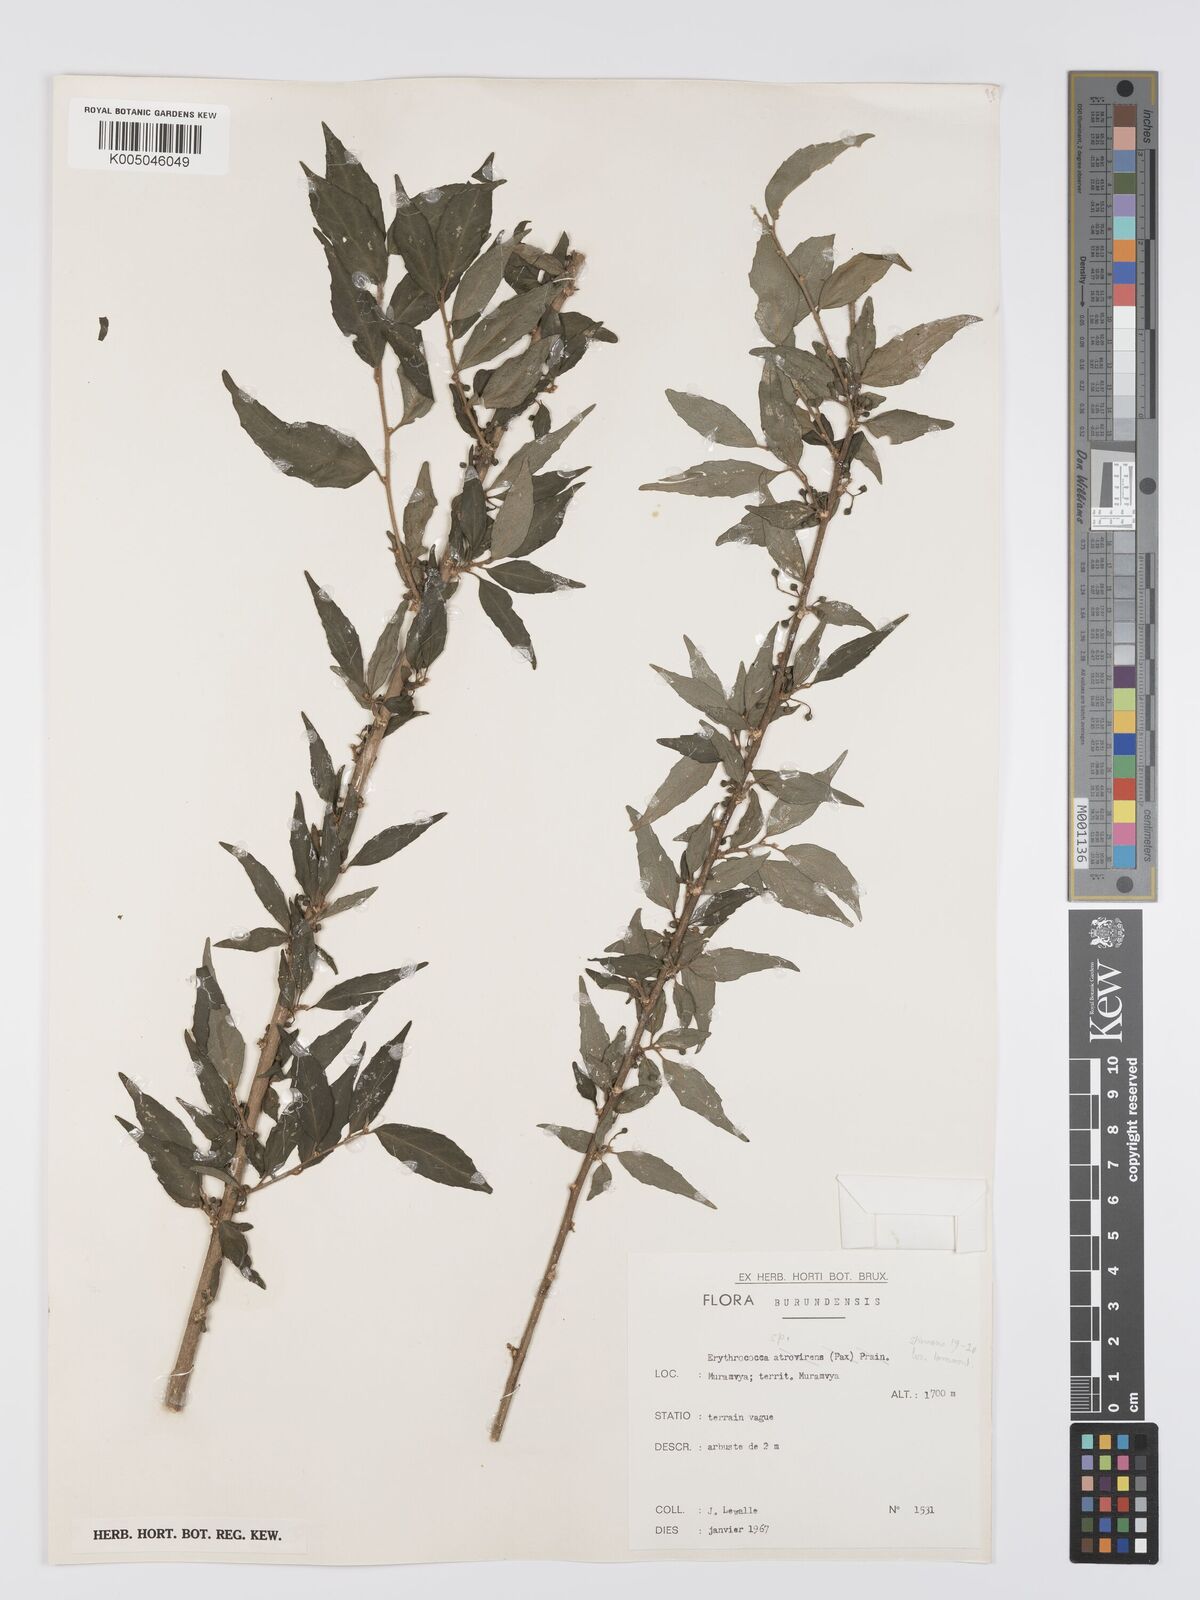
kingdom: Plantae
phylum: Tracheophyta
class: Magnoliopsida
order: Malpighiales
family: Euphorbiaceae
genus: Erythrococca
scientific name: Erythrococca
